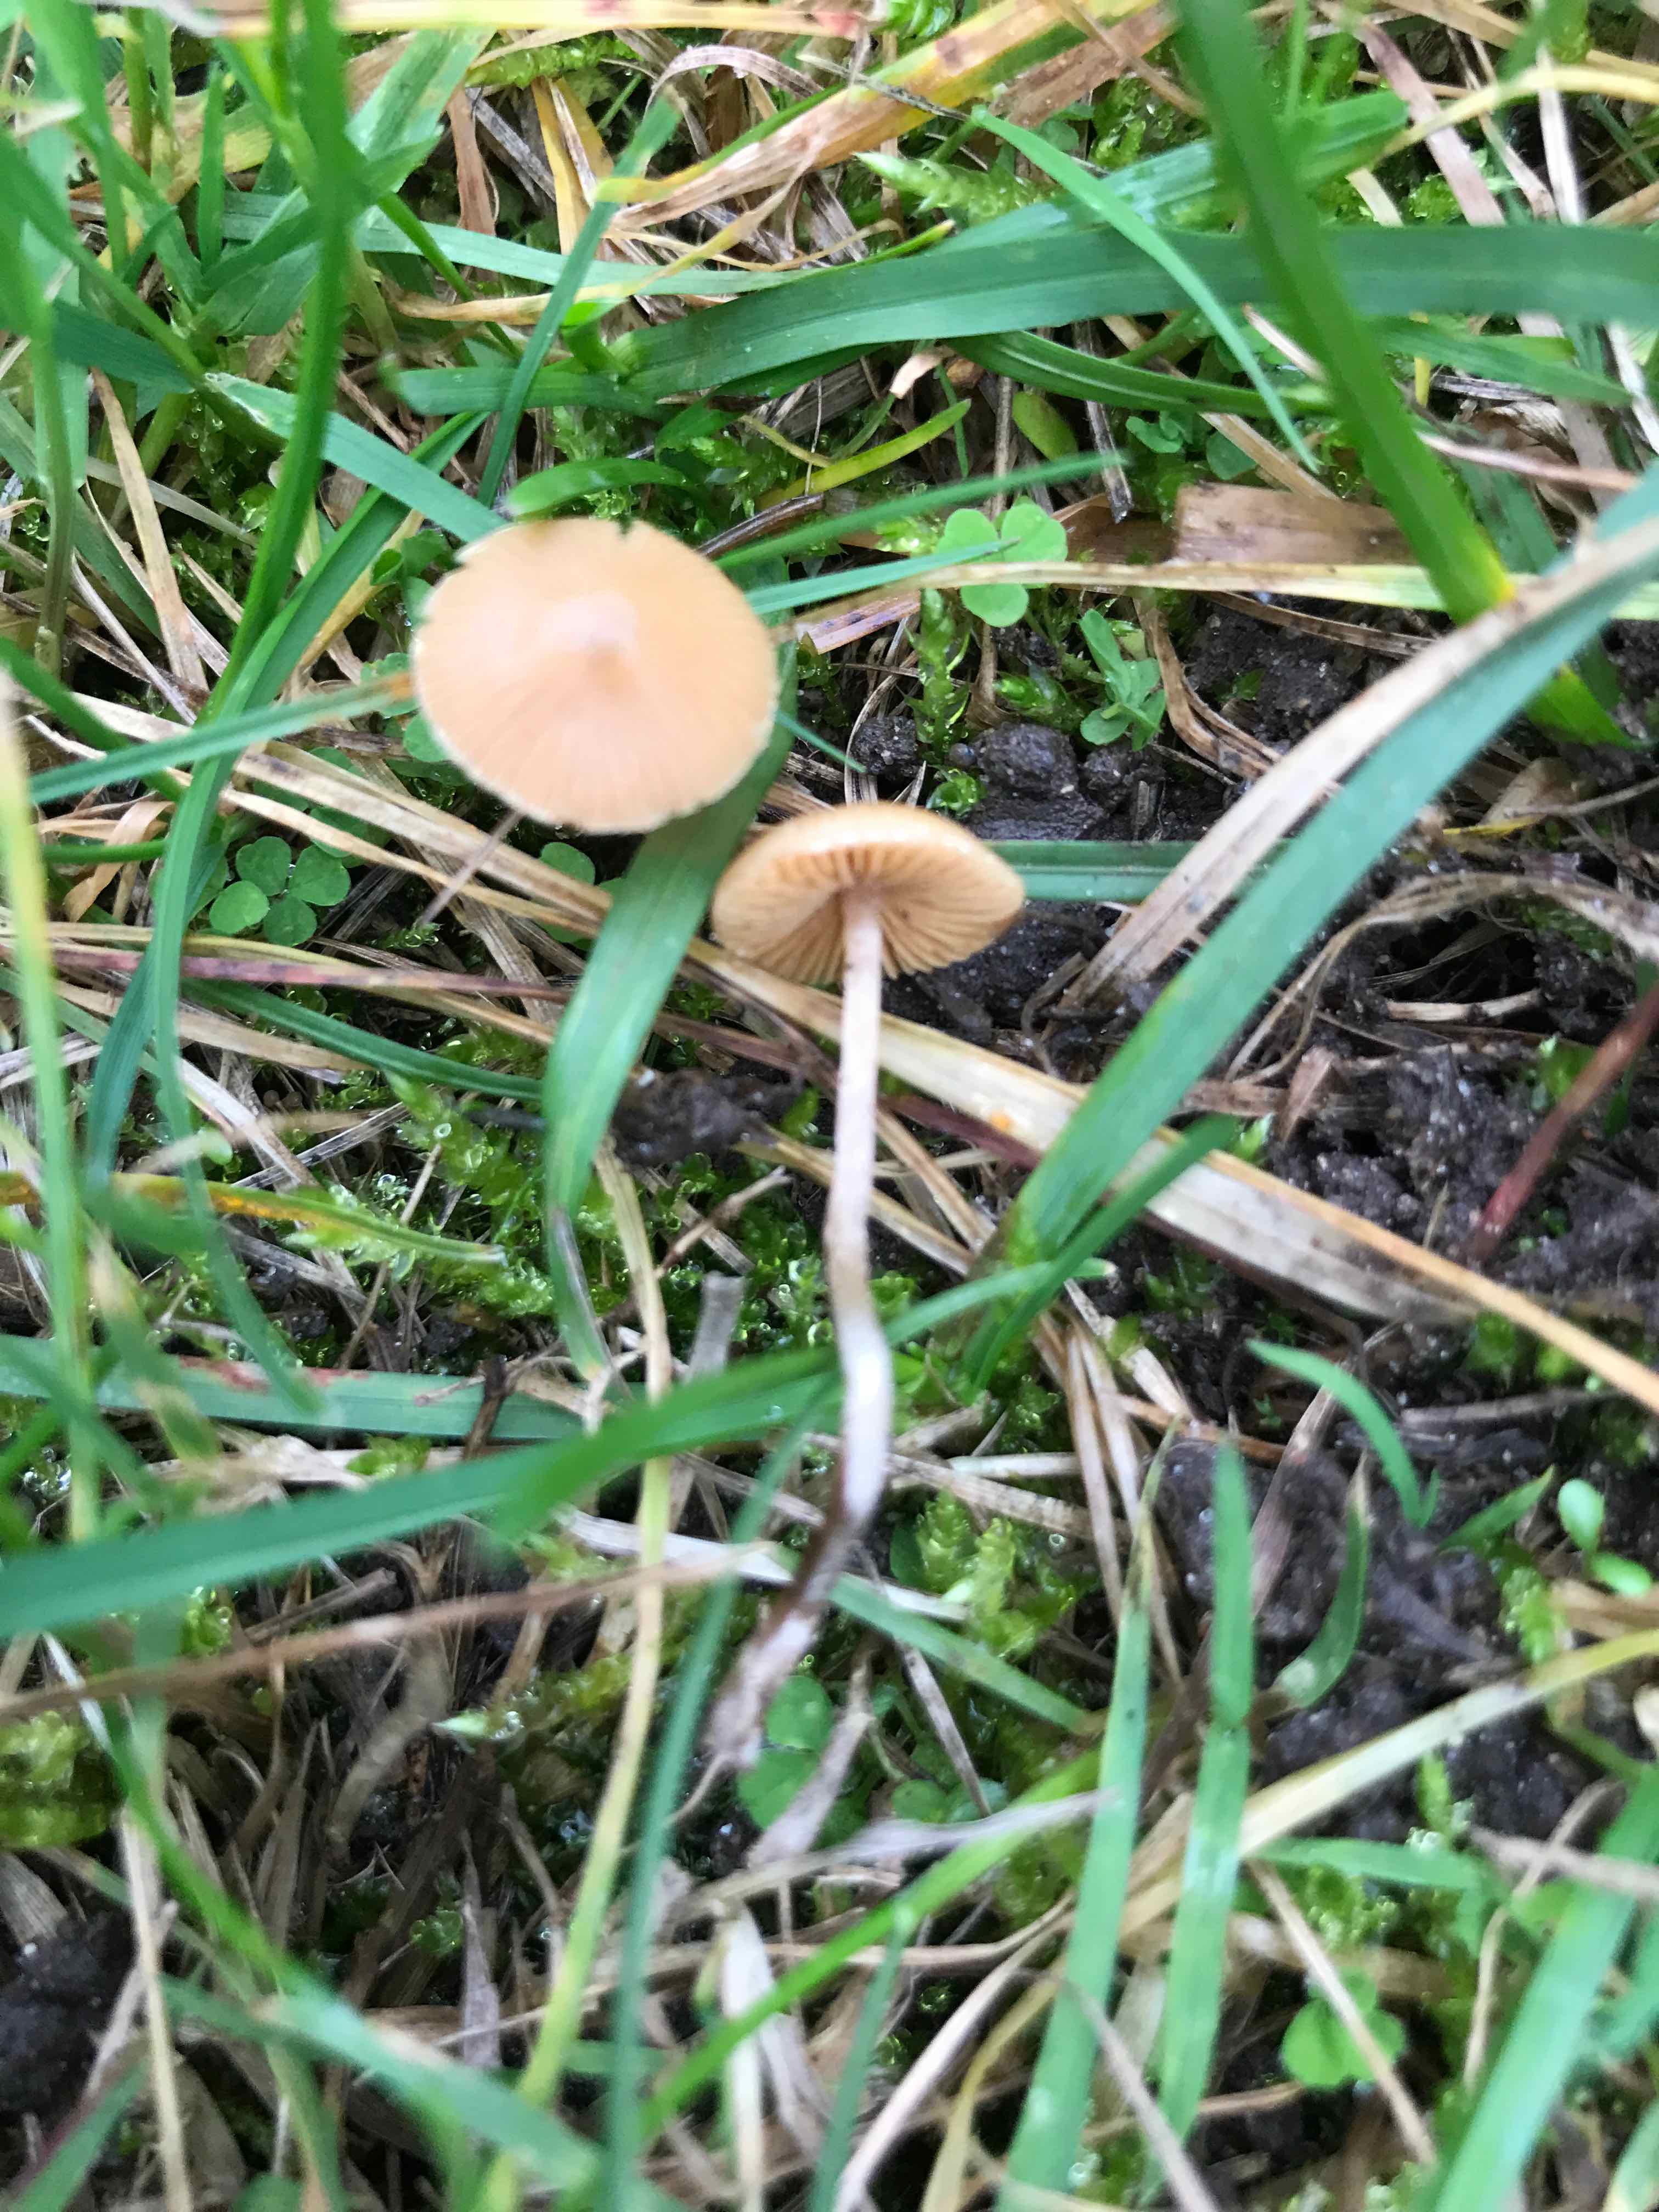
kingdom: Fungi
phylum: Basidiomycota
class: Agaricomycetes
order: Agaricales
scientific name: Agaricales
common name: champignonordenen
